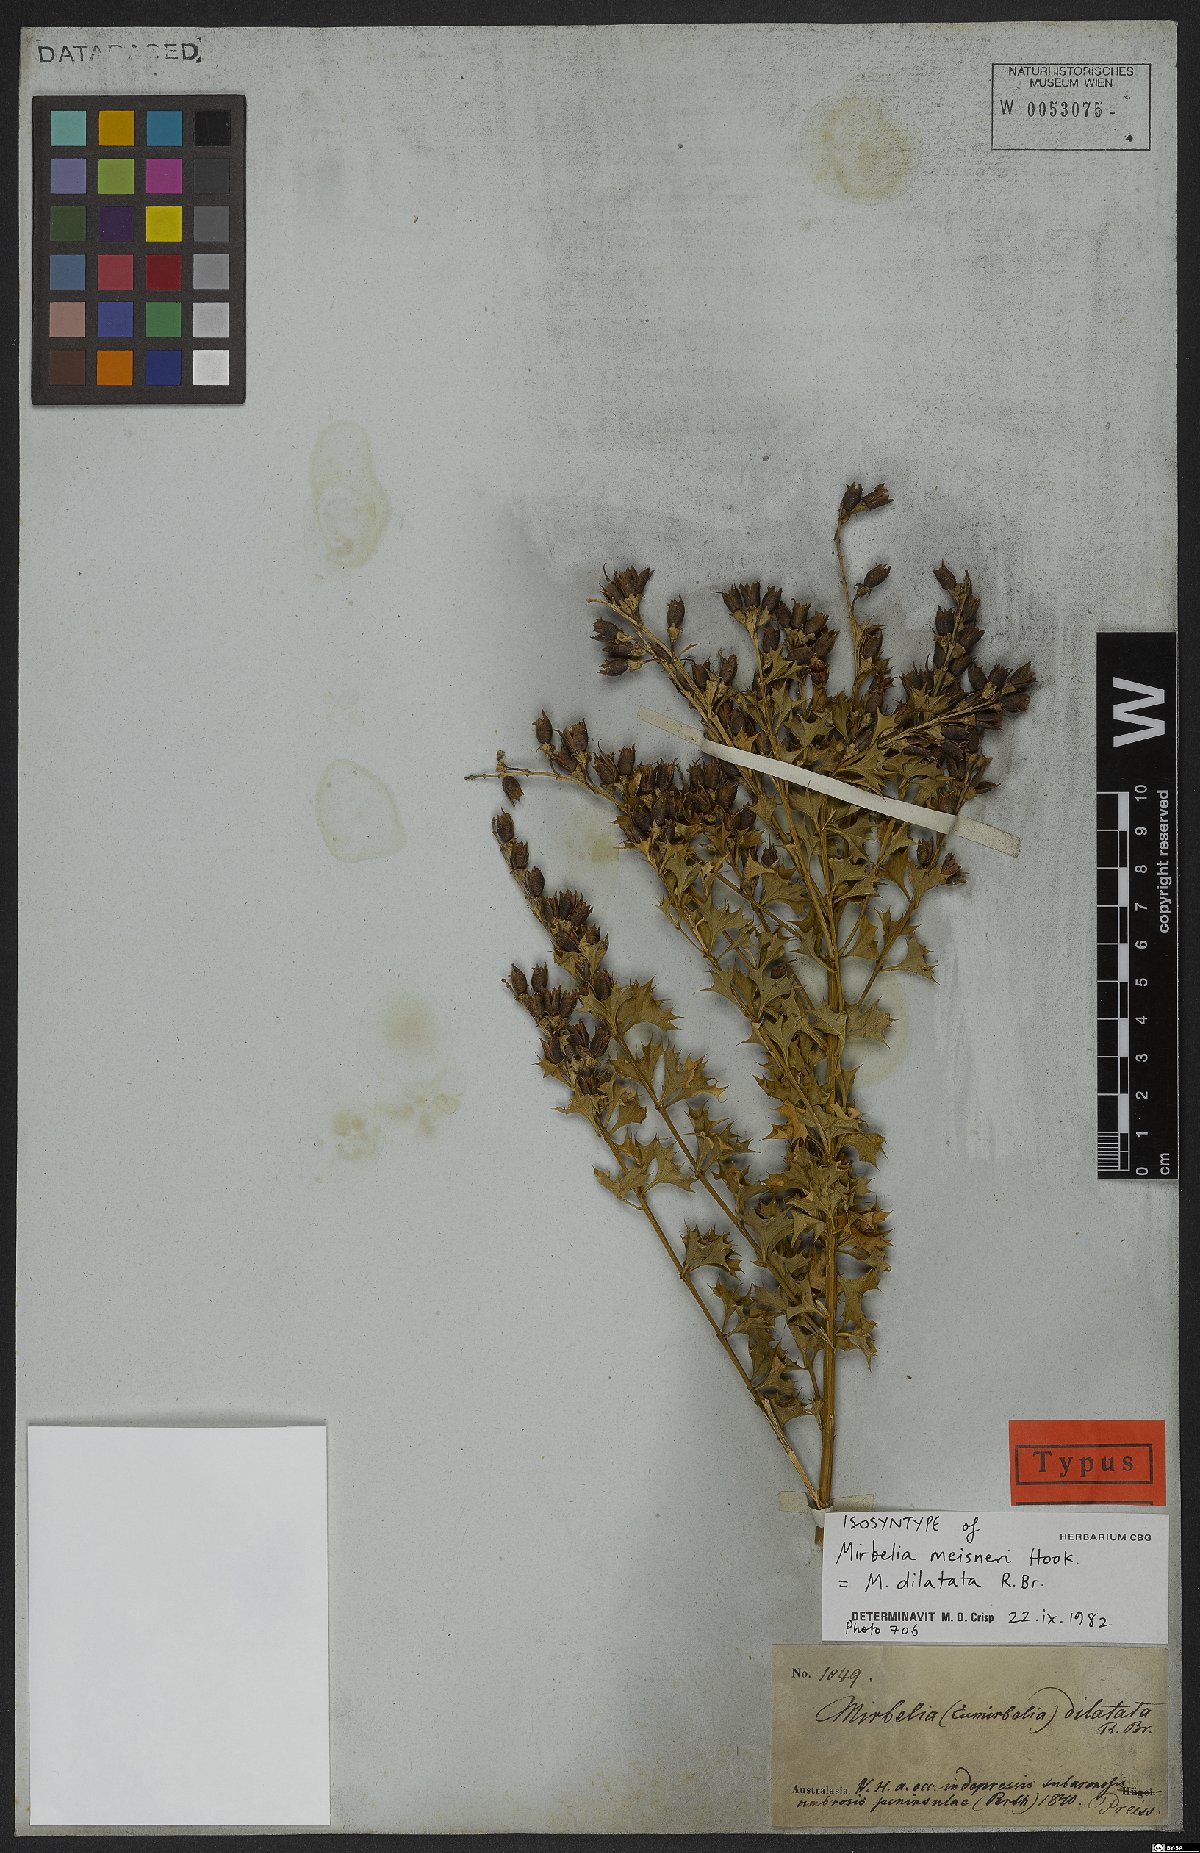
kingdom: Plantae
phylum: Tracheophyta
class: Magnoliopsida
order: Fabales
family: Fabaceae
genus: Mirbelia
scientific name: Mirbelia dilatata
